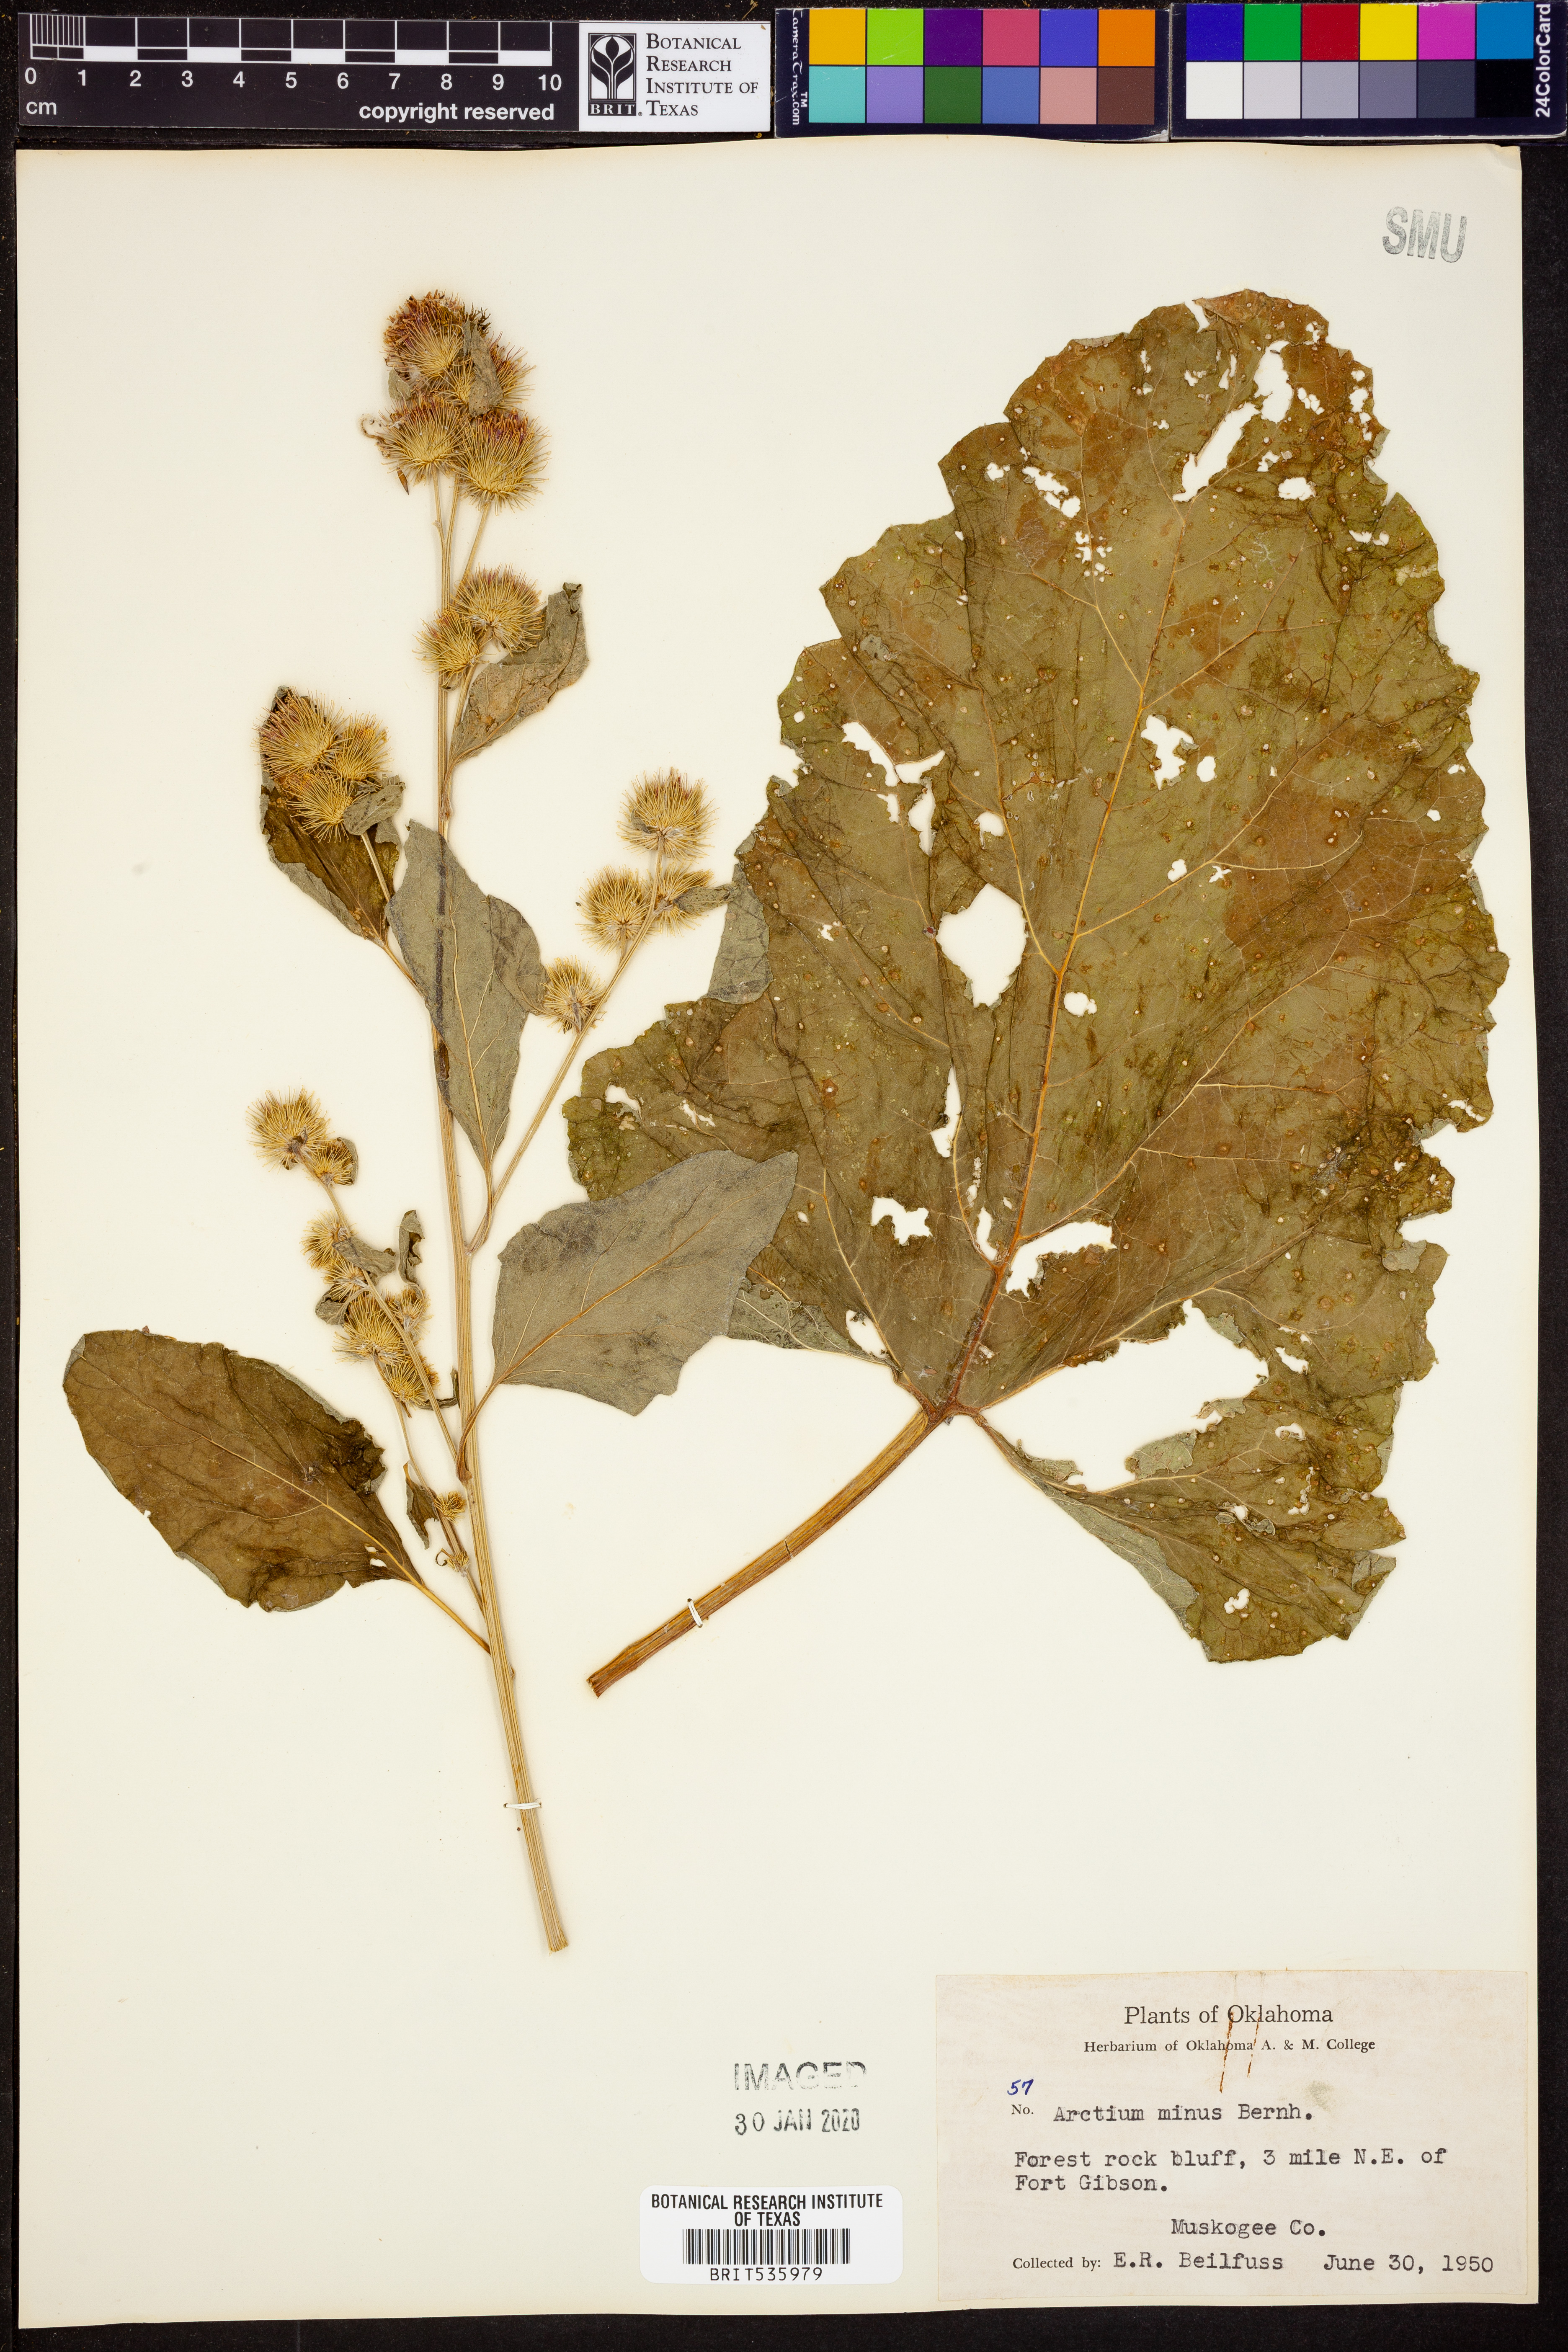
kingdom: Plantae
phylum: Tracheophyta
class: Magnoliopsida
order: Asterales
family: Asteraceae
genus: Arctium
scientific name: Arctium minus
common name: Lesser burdock
